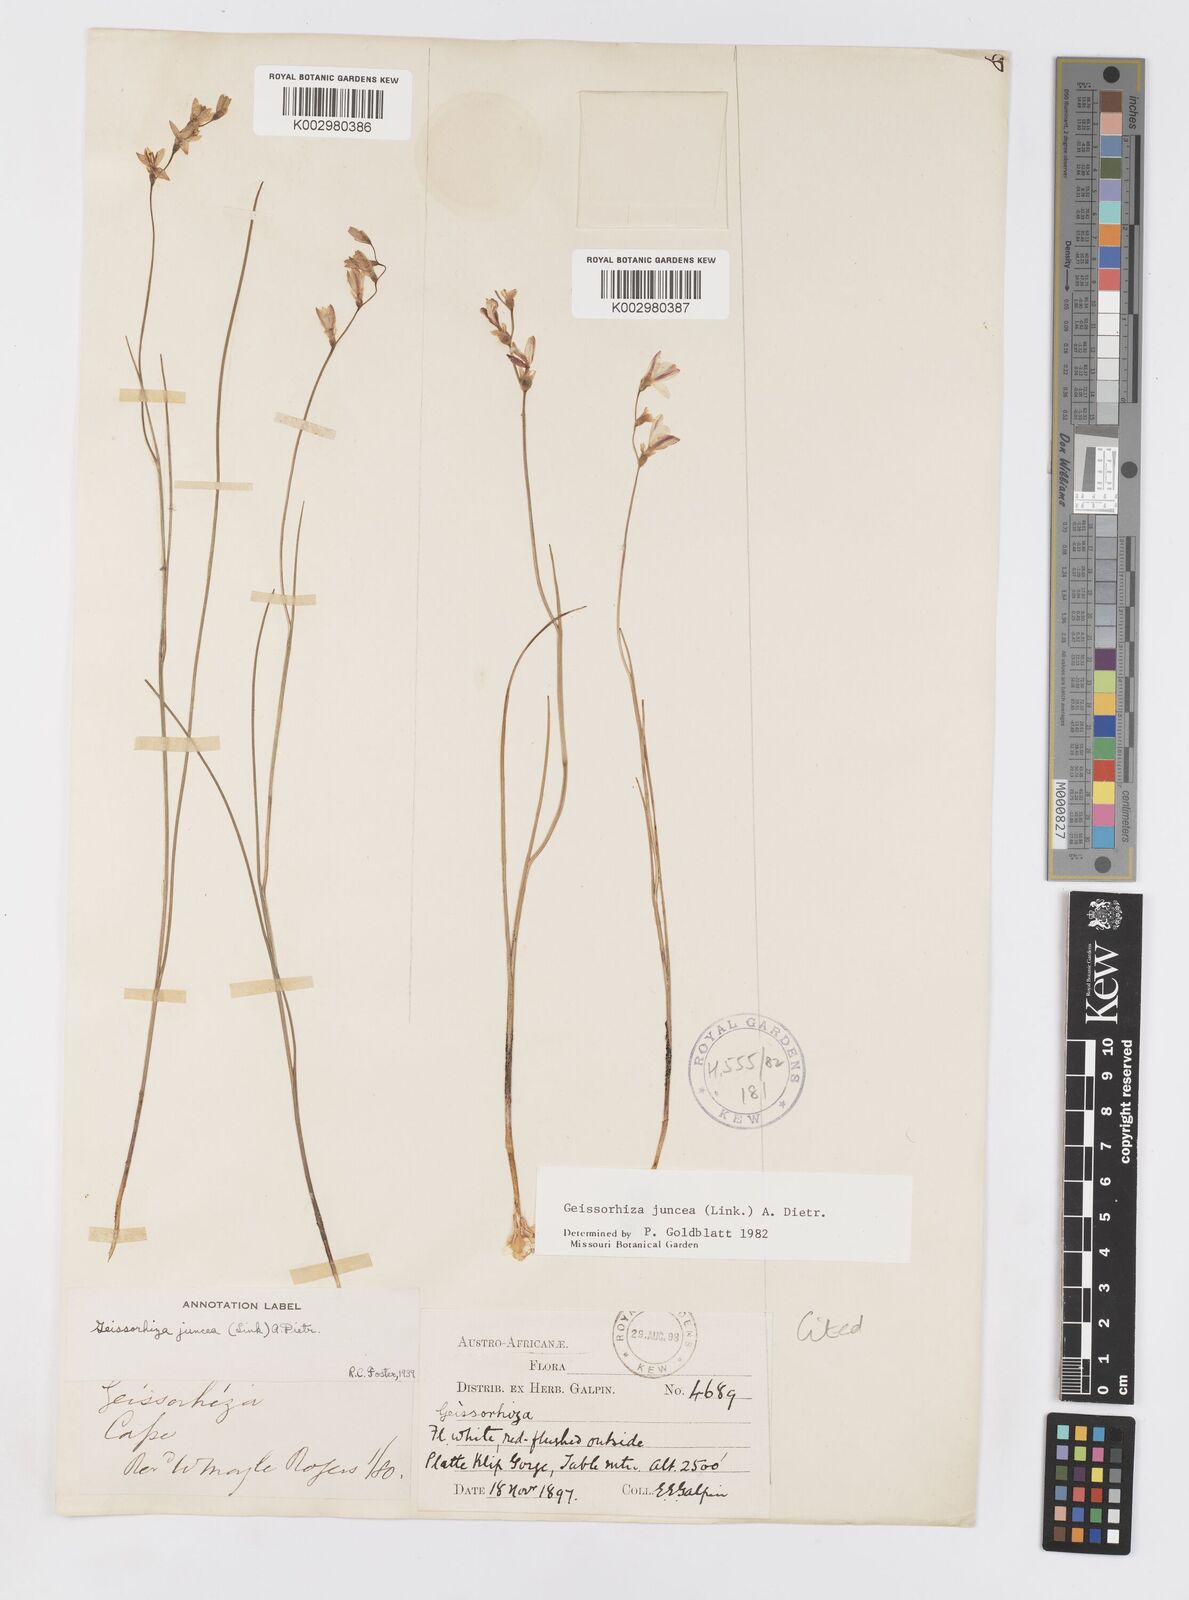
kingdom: Plantae
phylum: Tracheophyta
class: Liliopsida
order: Asparagales
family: Iridaceae
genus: Geissorhiza
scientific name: Geissorhiza juncea
